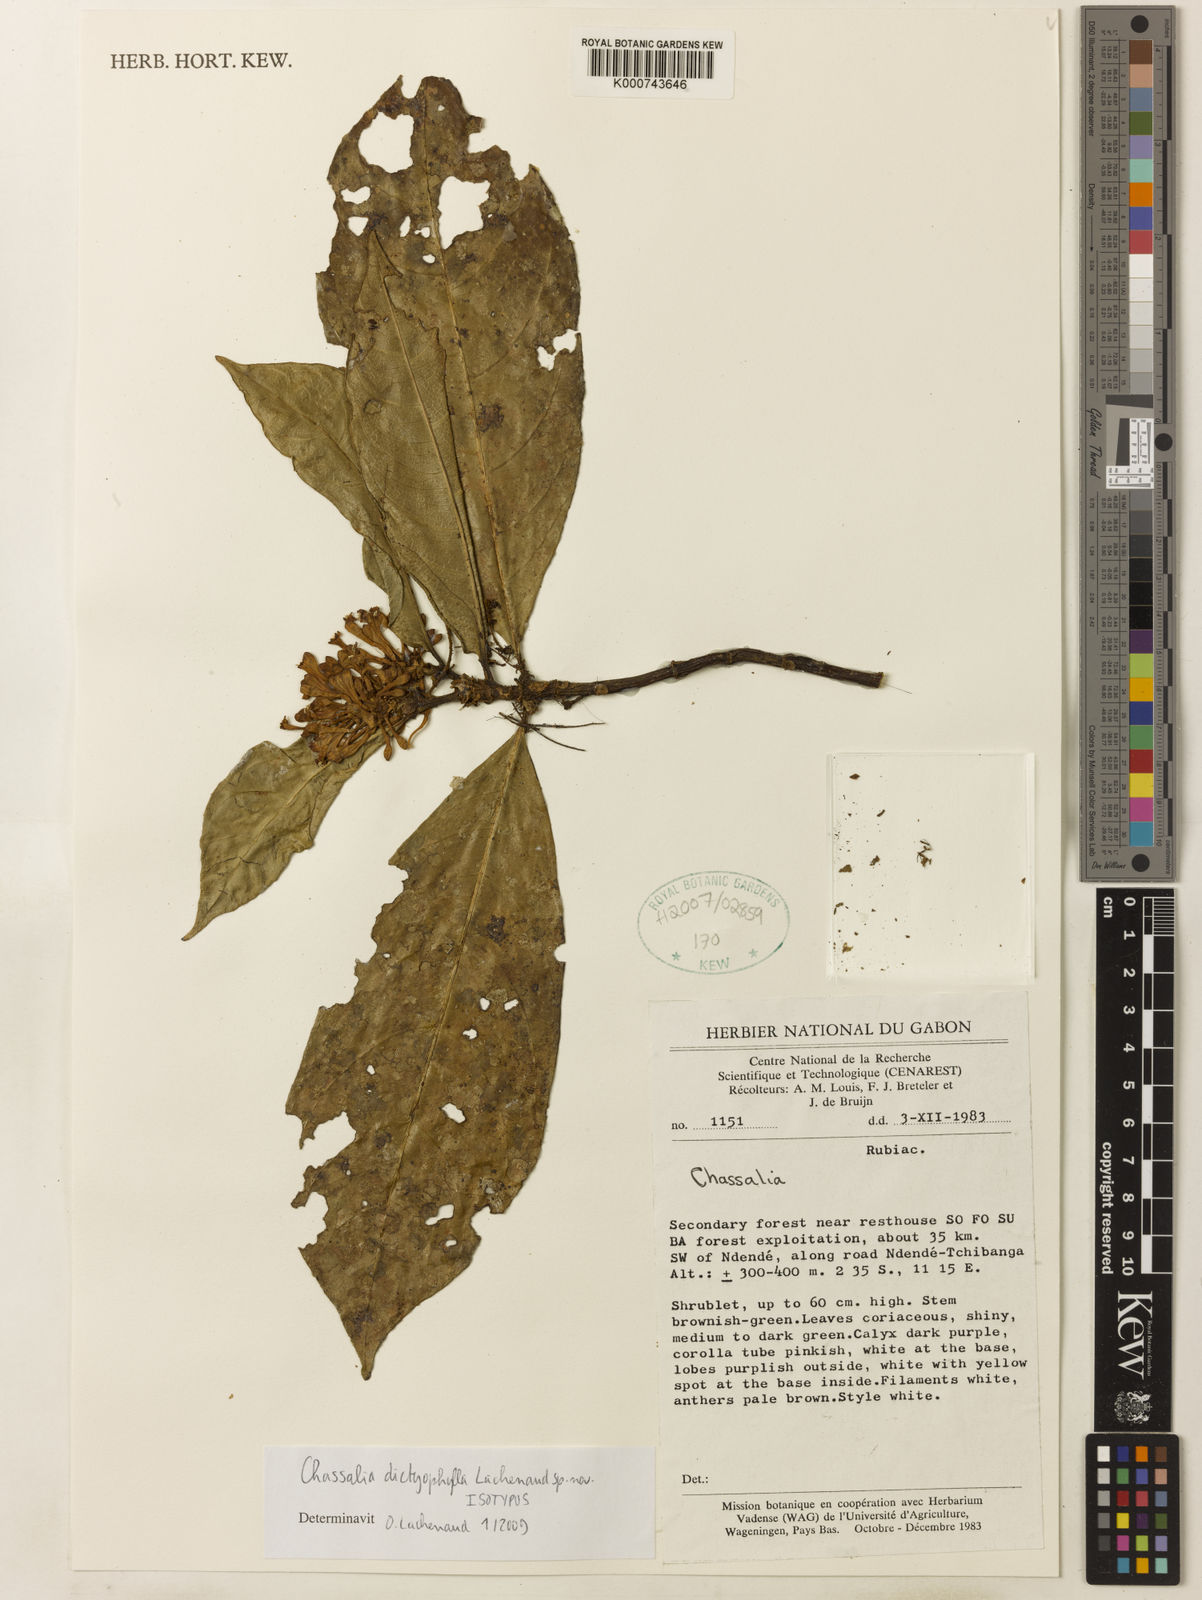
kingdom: Plantae
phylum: Tracheophyta
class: Magnoliopsida
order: Gentianales
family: Rubiaceae
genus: Chassalia
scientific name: Chassalia
